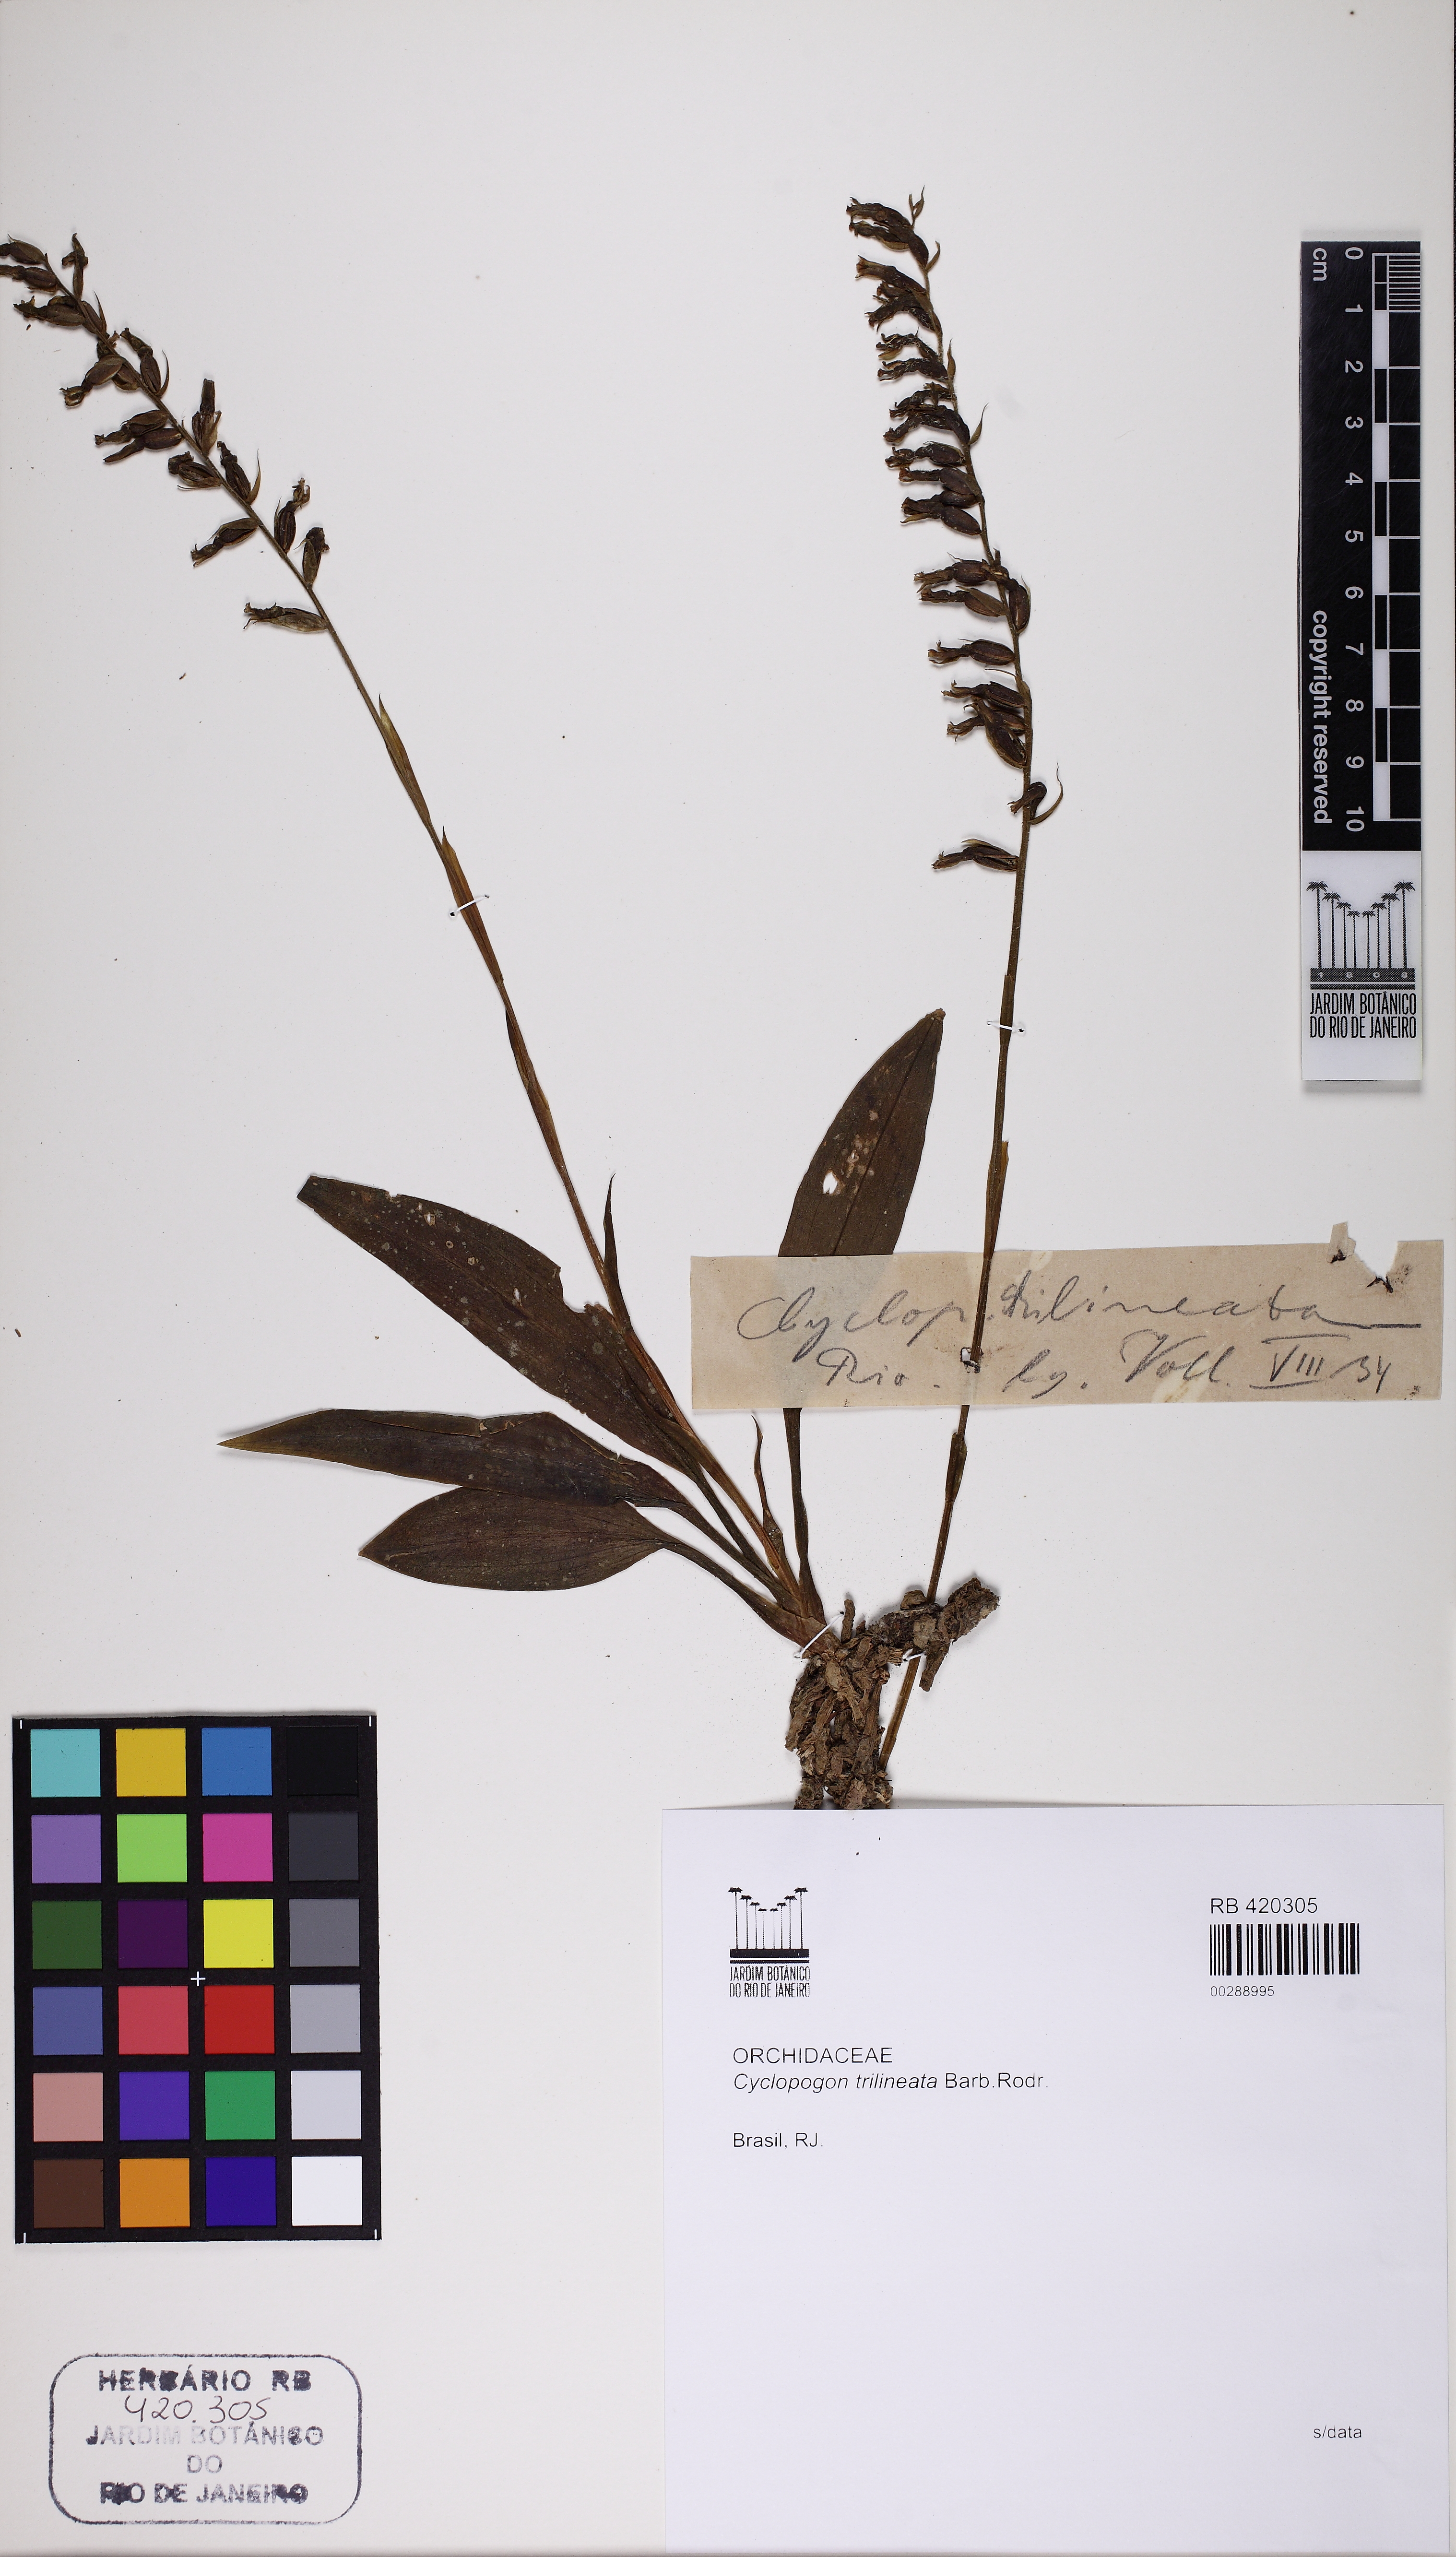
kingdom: Plantae
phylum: Tracheophyta
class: Liliopsida
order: Asparagales
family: Orchidaceae
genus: Cyclopogon
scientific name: Cyclopogon longibracteatus
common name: Long bracted cyclopogon
